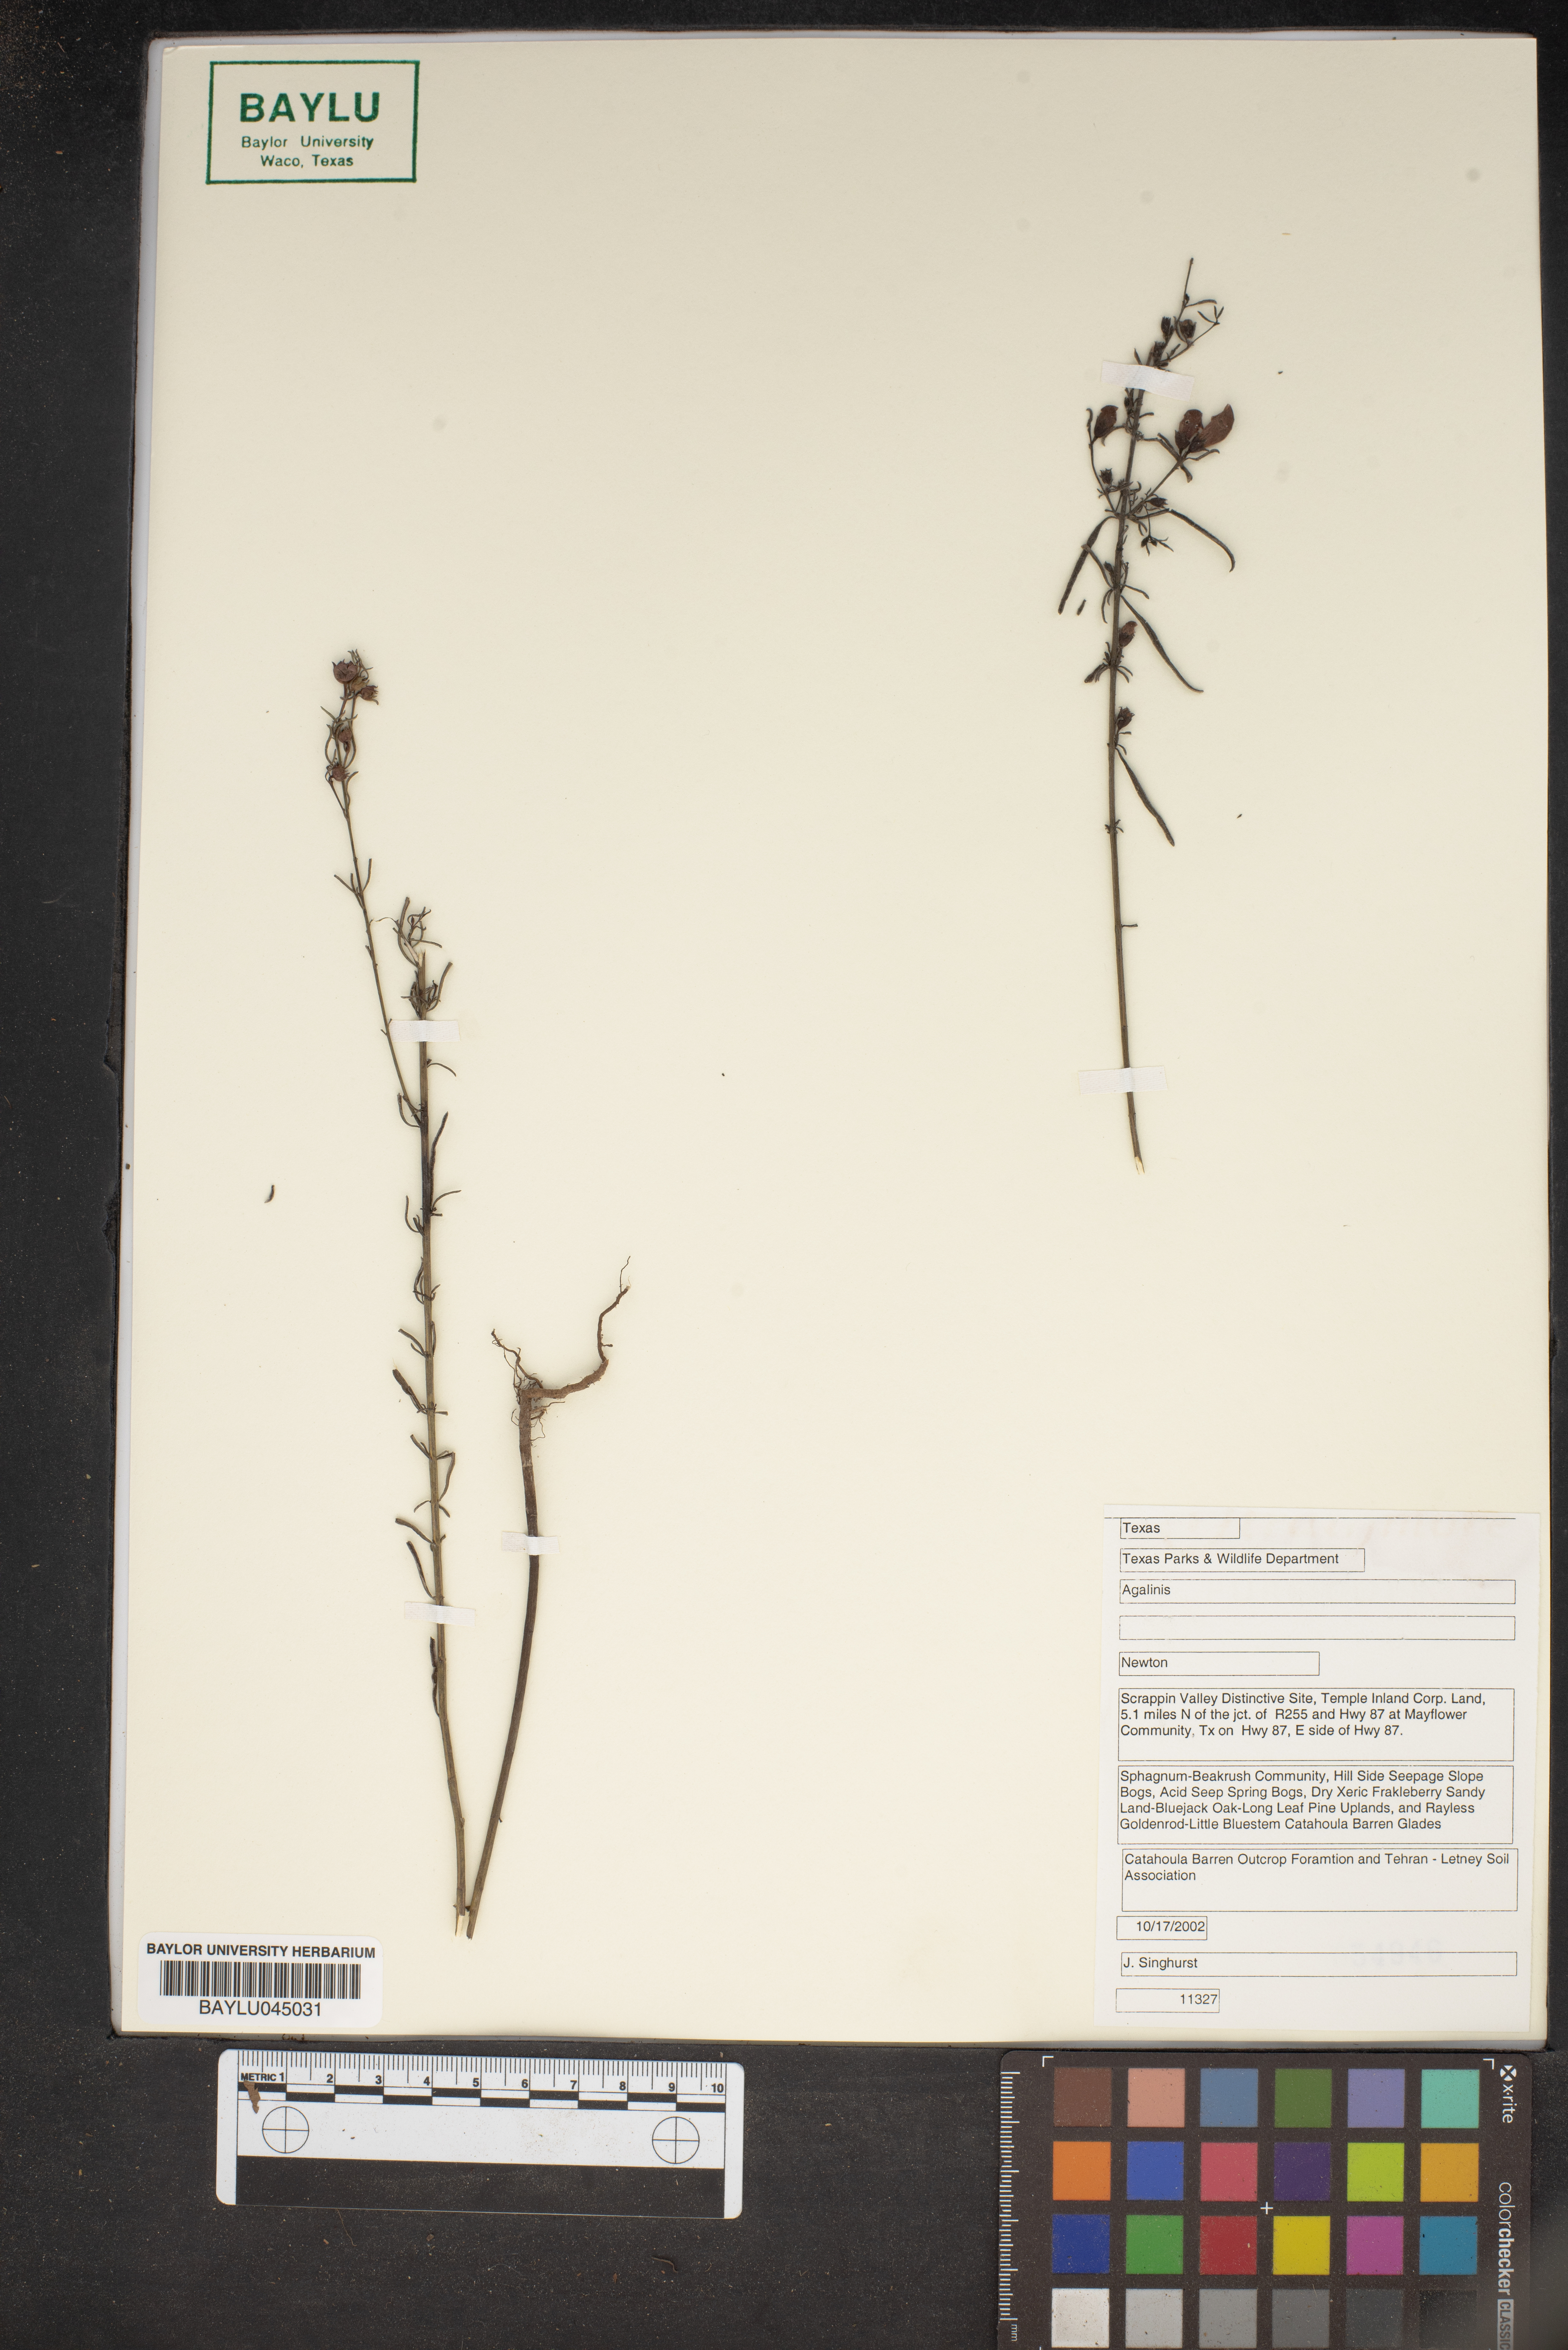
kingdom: Plantae
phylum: Tracheophyta
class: Magnoliopsida
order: Lamiales
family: Orobanchaceae
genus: Agalinis
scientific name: Agalinis
